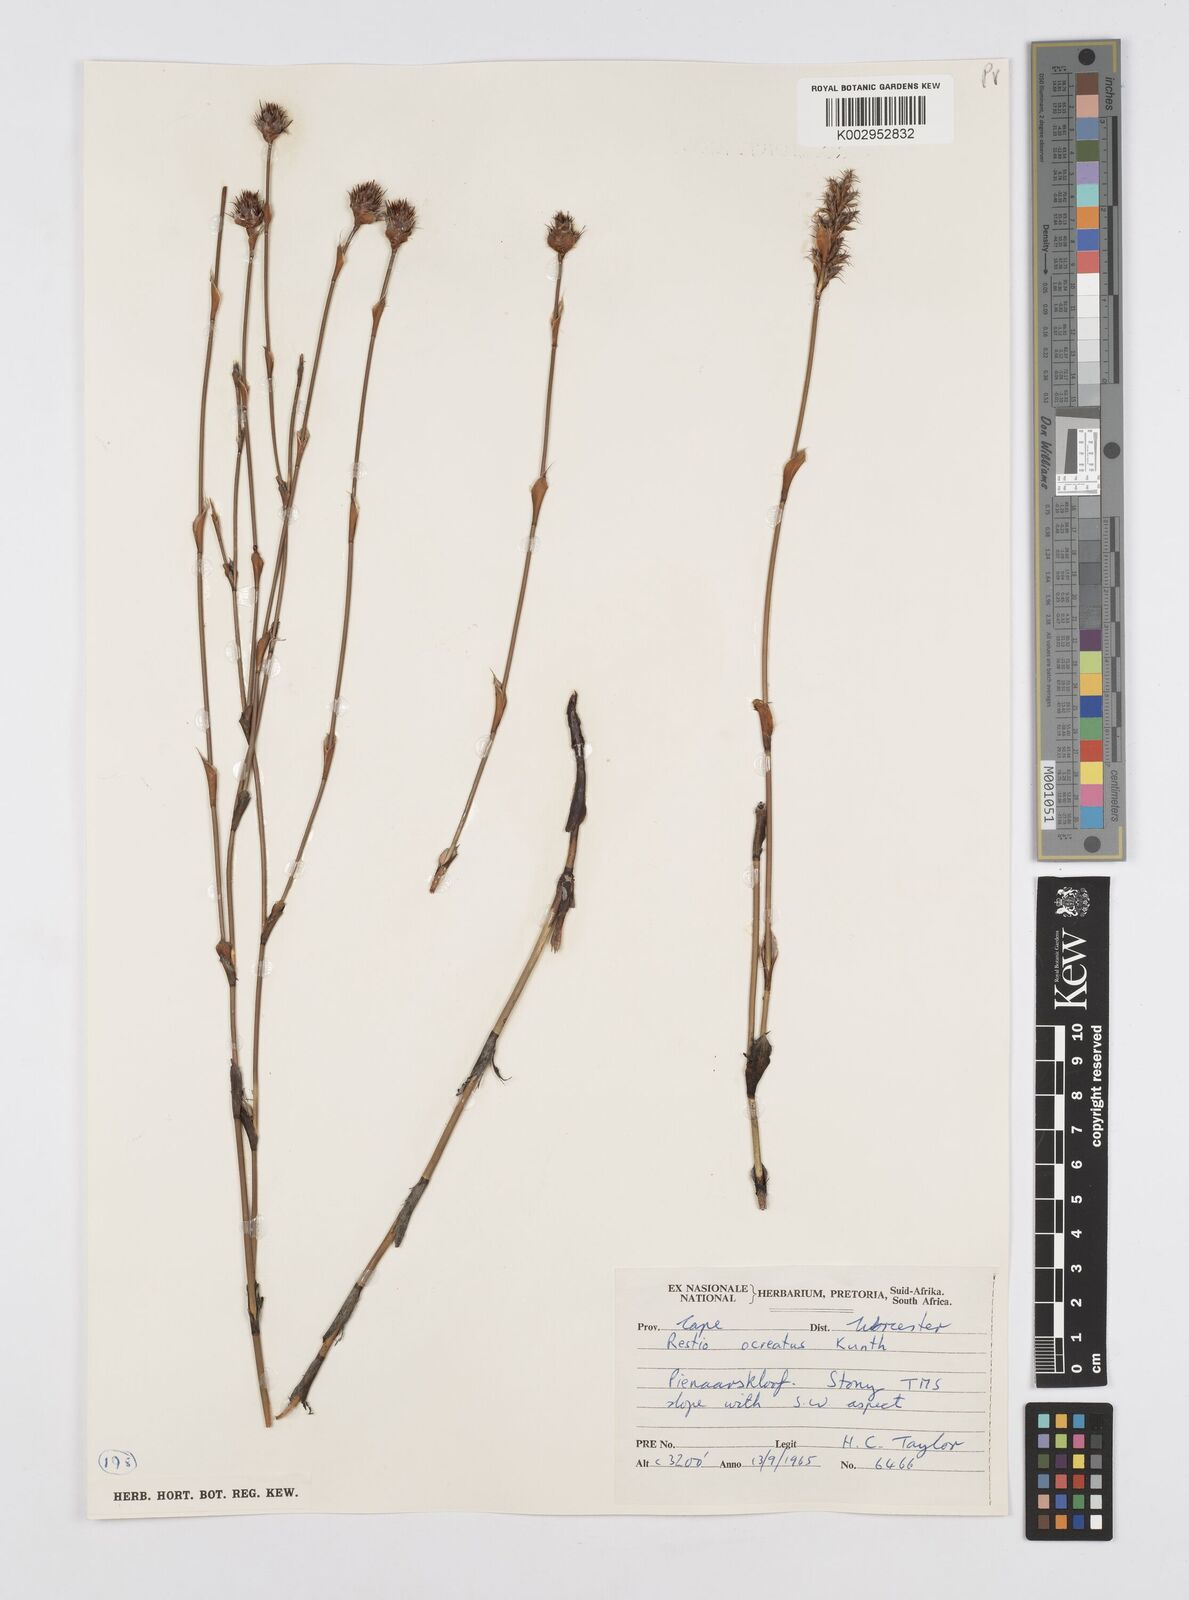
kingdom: Plantae
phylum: Tracheophyta
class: Liliopsida
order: Poales
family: Restionaceae
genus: Restio
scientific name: Restio ocreatus
